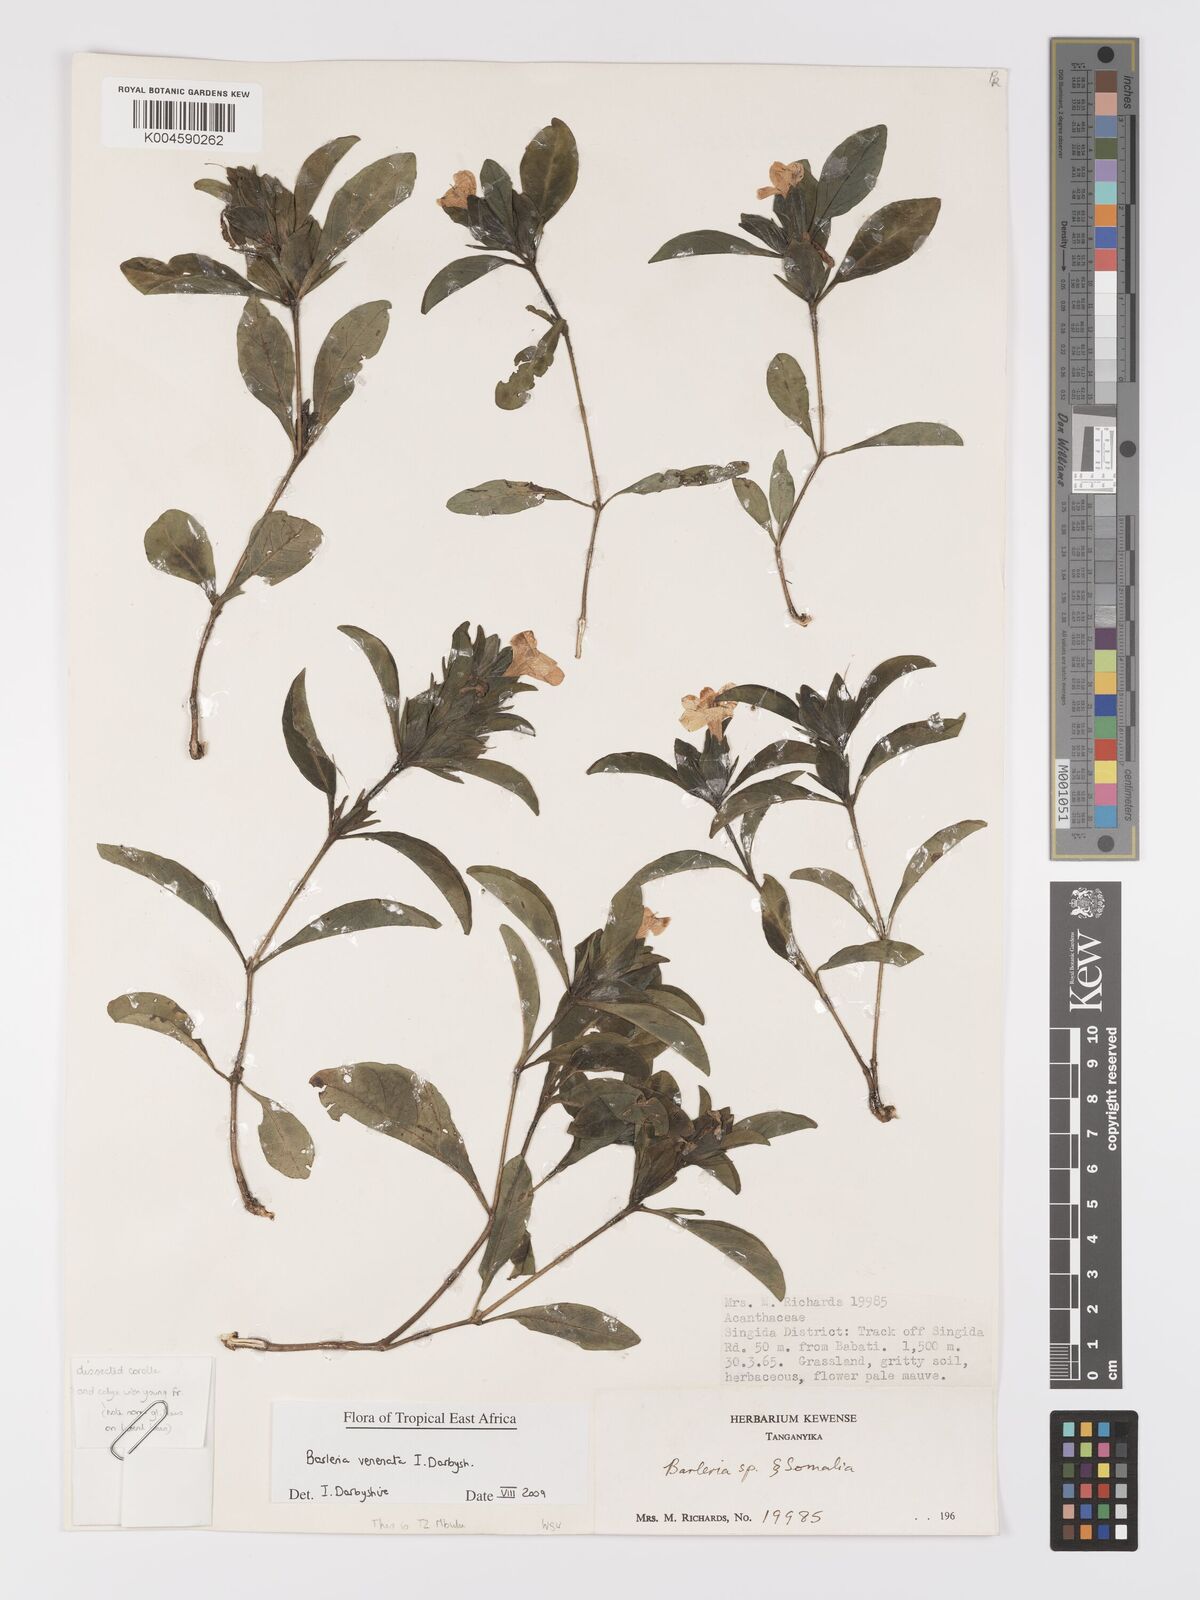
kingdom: Plantae
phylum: Tracheophyta
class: Magnoliopsida
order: Lamiales
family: Acanthaceae
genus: Barleria
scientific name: Barleria venenata
